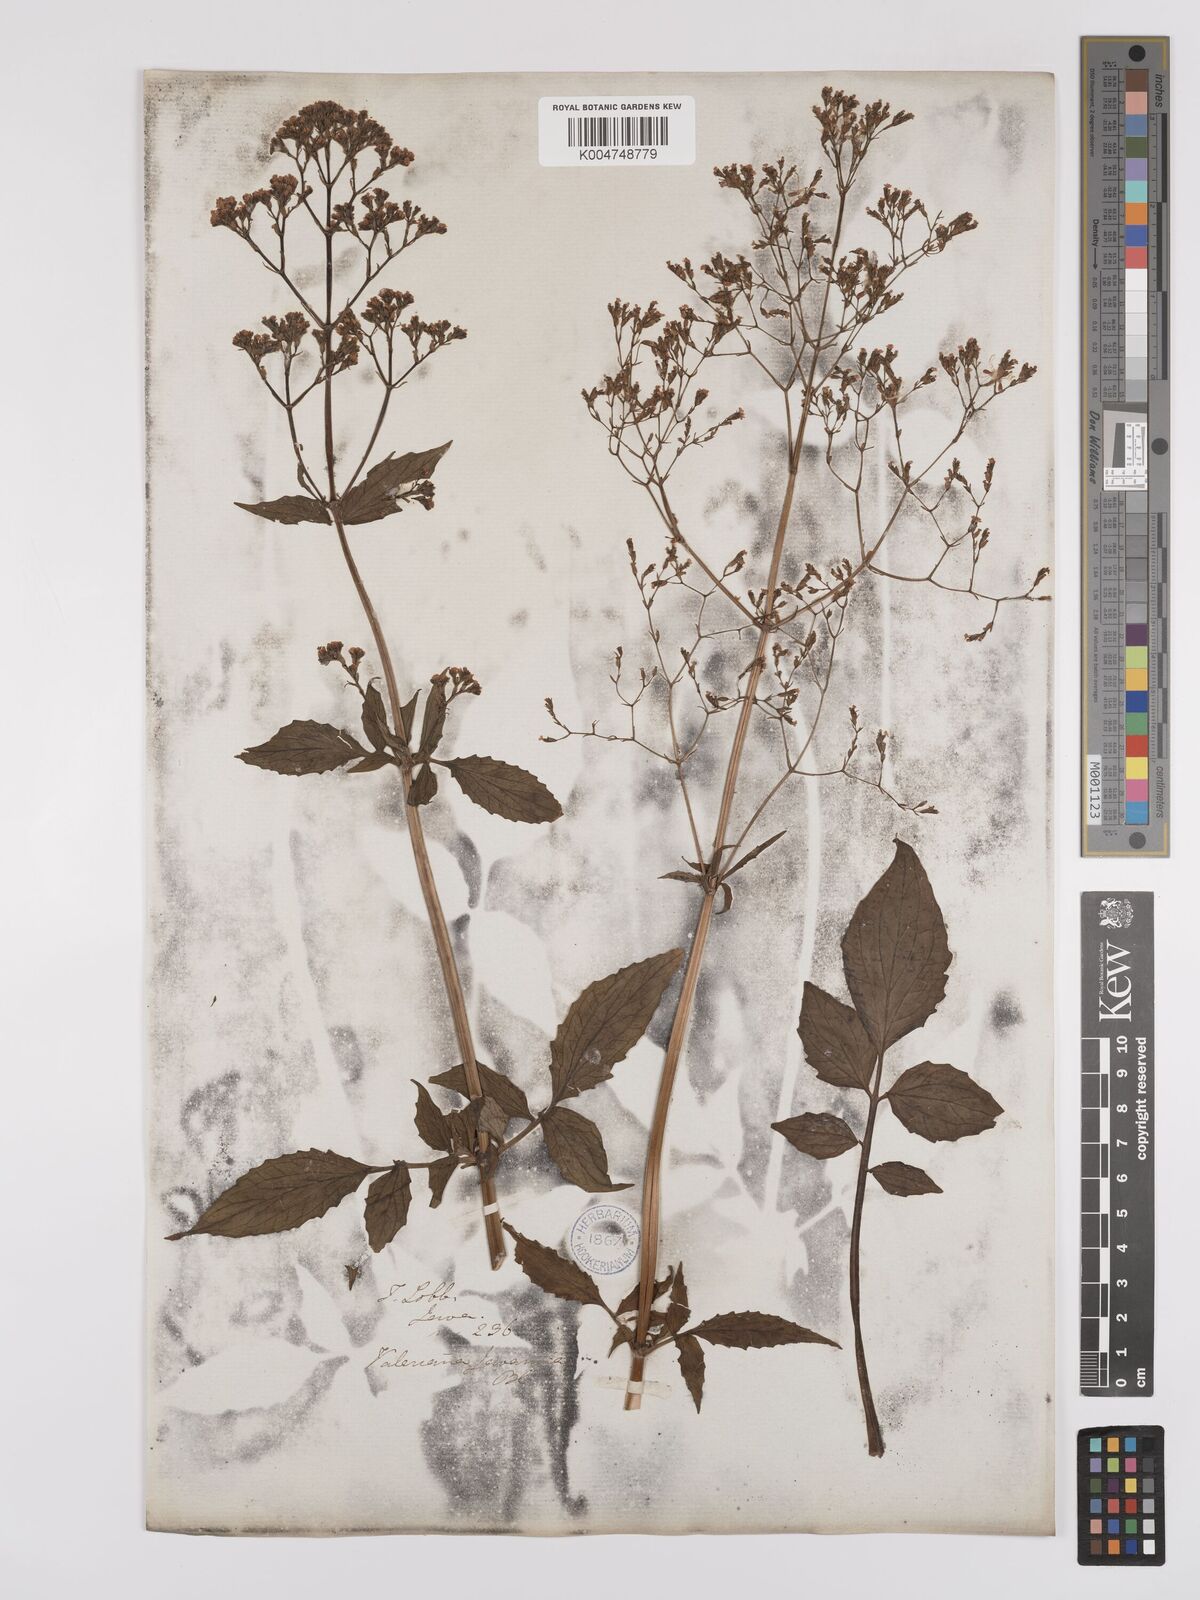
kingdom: Plantae
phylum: Tracheophyta
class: Magnoliopsida
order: Dipsacales
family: Caprifoliaceae
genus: Valeriana
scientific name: Valeriana hardwickei
